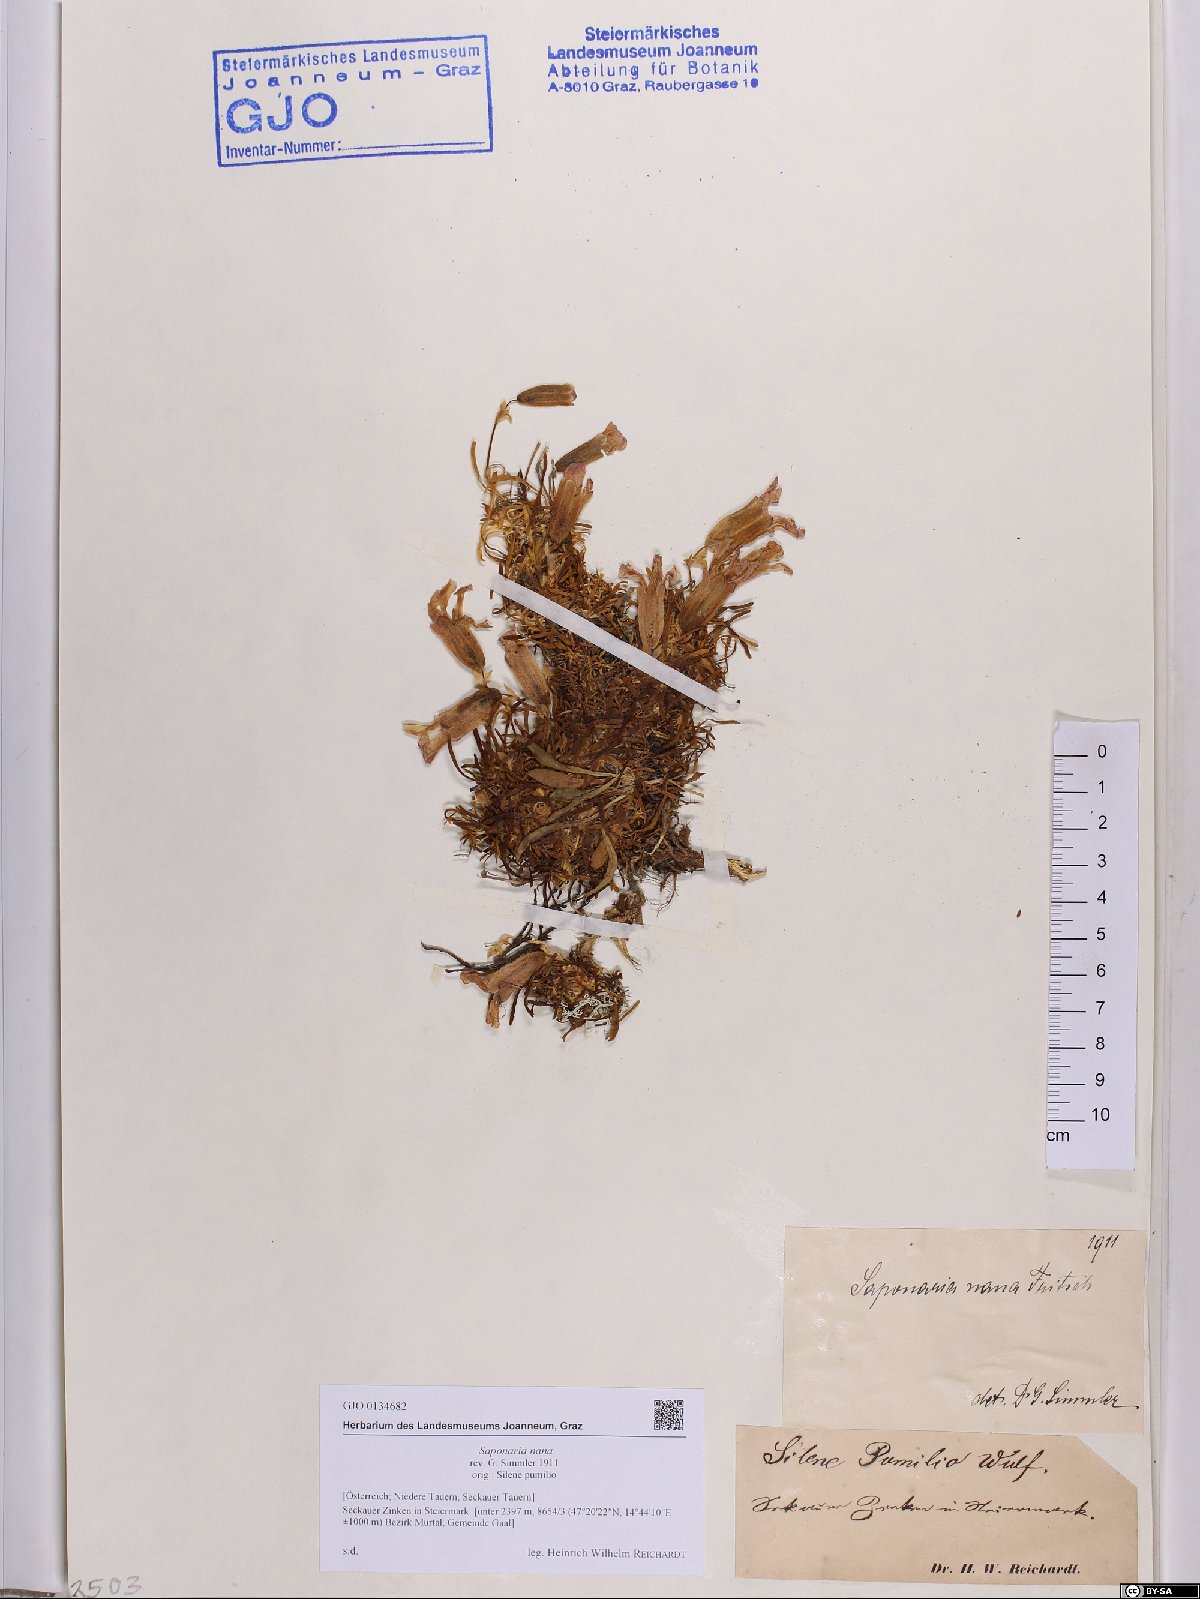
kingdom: Plantae
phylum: Tracheophyta
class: Magnoliopsida
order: Caryophyllales
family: Caryophyllaceae
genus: Saponaria
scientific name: Saponaria pumila
